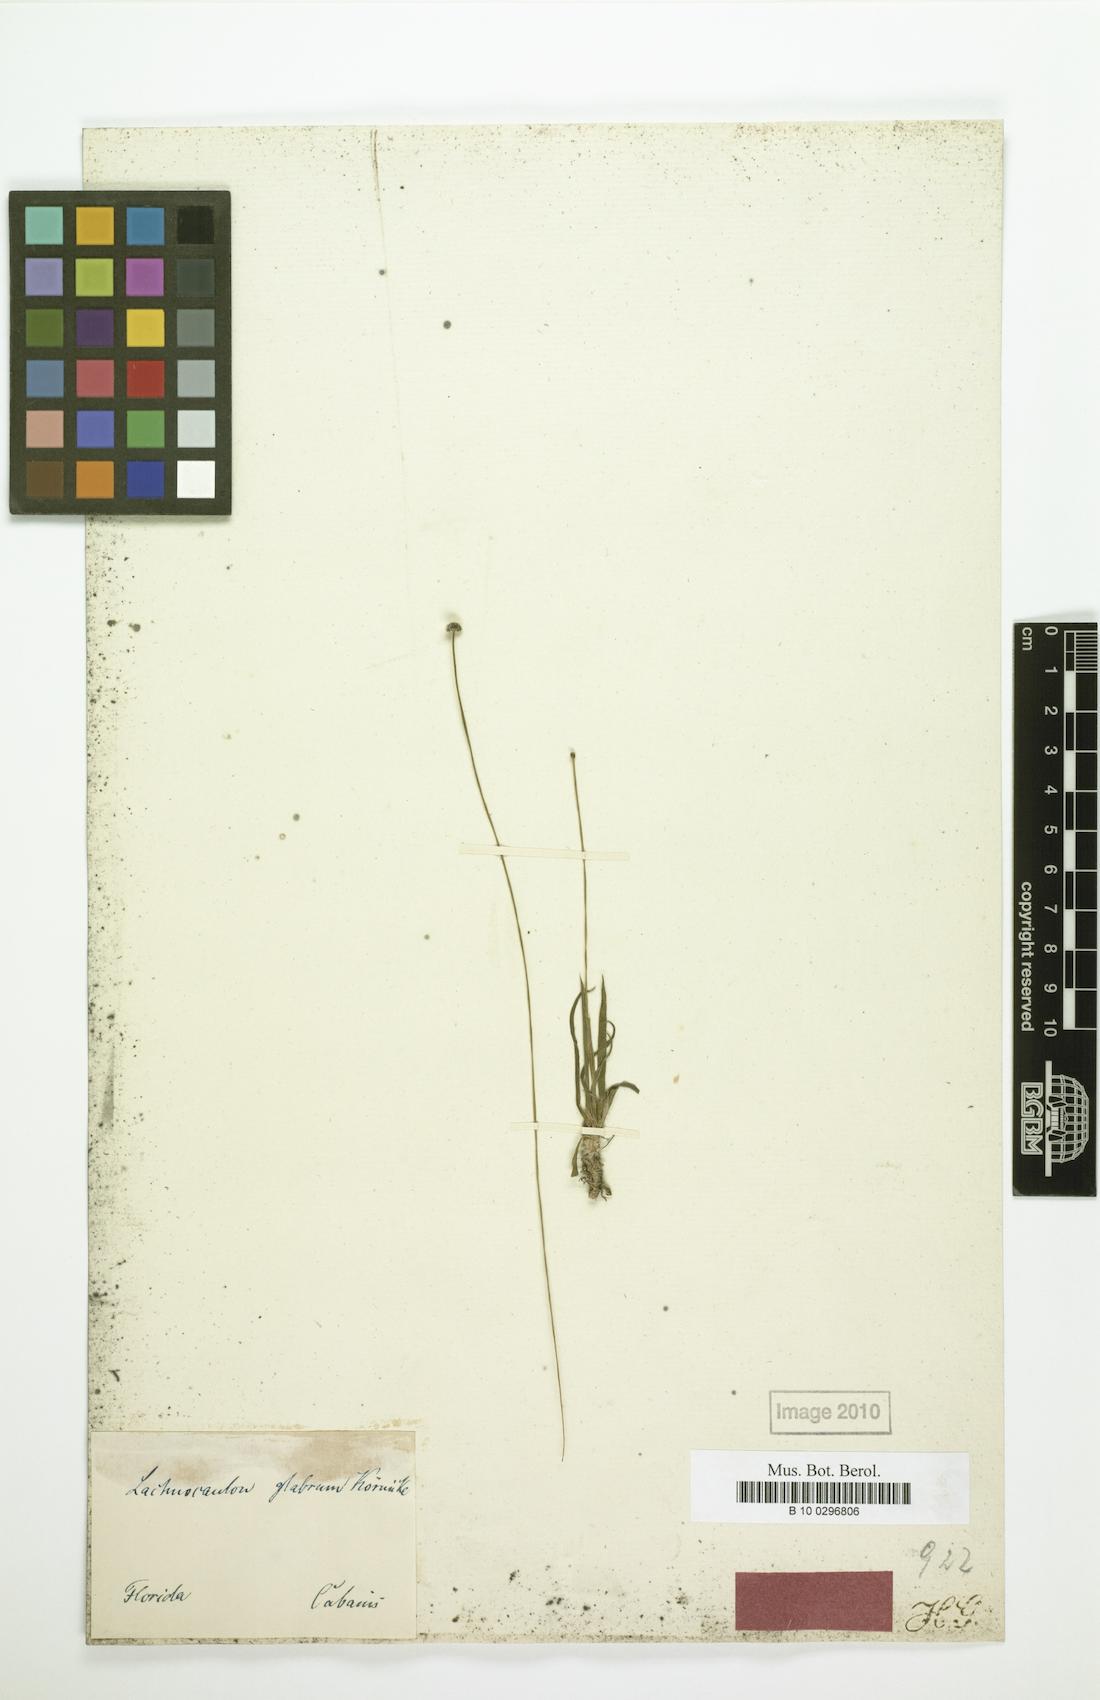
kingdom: Plantae
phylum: Tracheophyta
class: Liliopsida
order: Poales
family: Eriocaulaceae
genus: Paepalanthus
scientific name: Paepalanthus anceps
